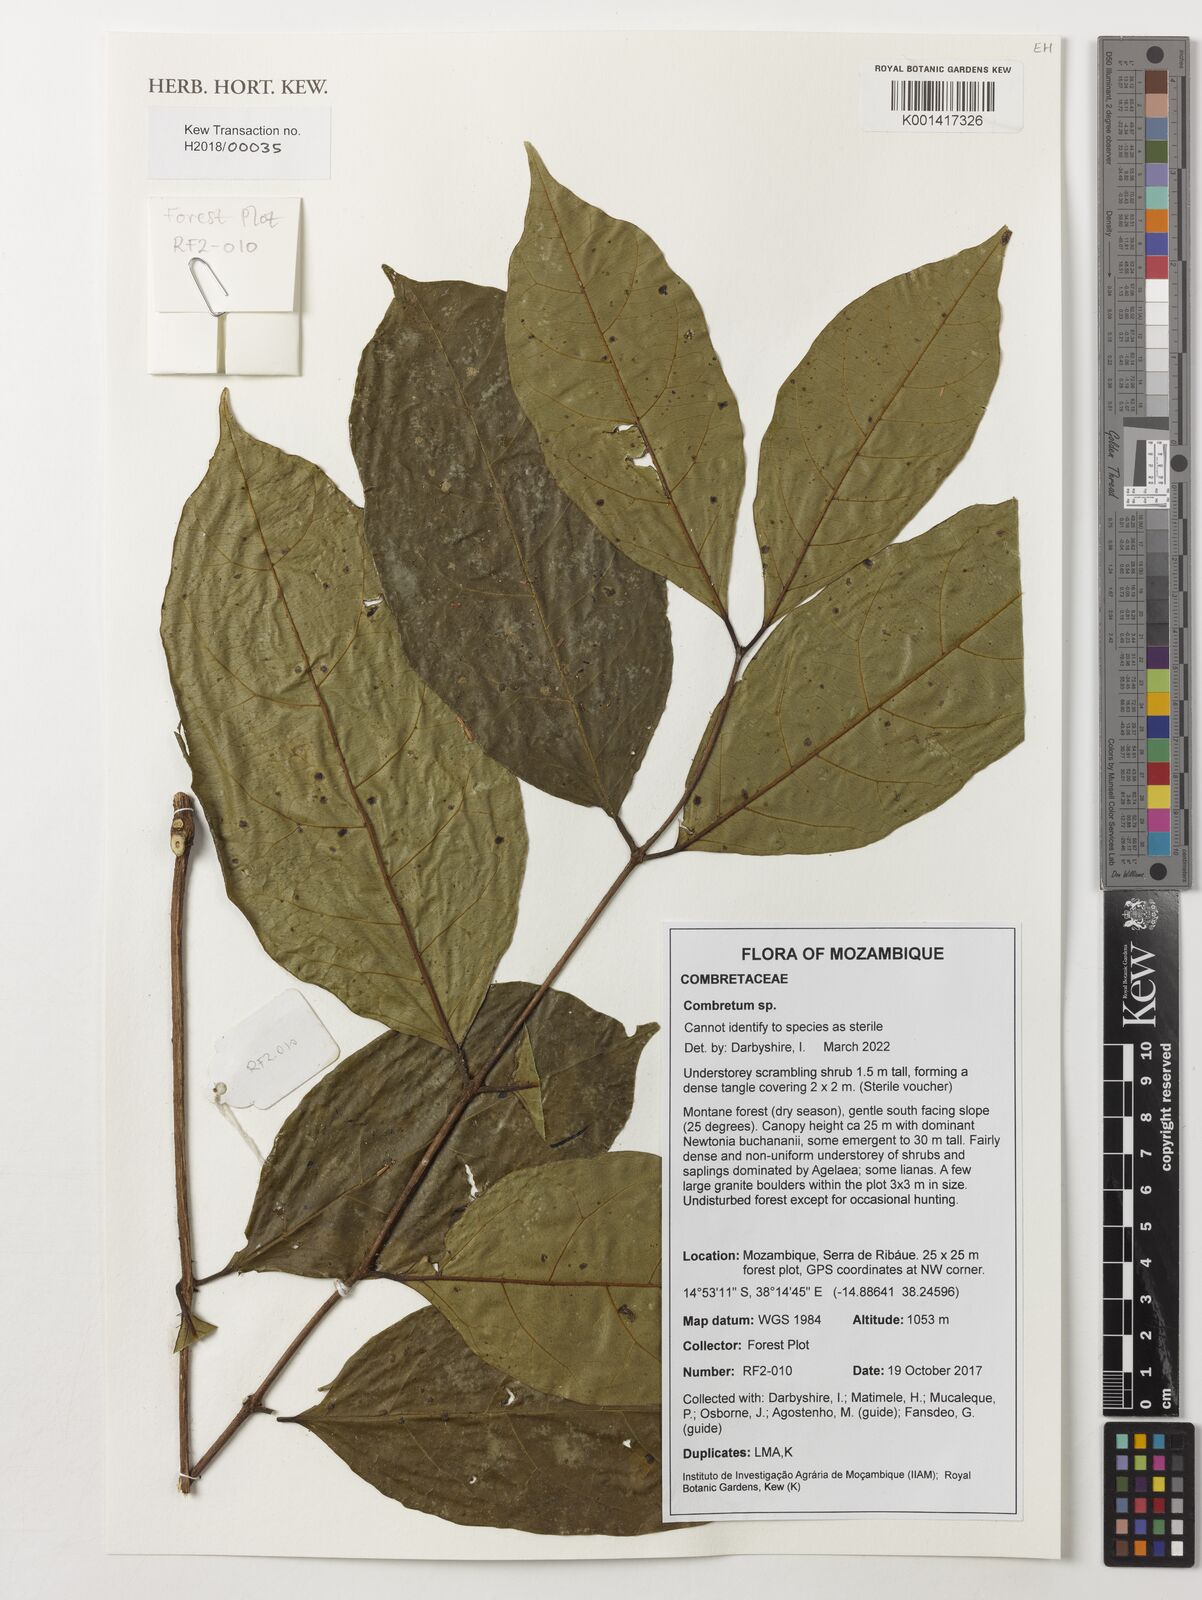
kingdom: Plantae
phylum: Tracheophyta
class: Magnoliopsida
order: Myrtales
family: Combretaceae
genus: Combretum
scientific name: Combretum
